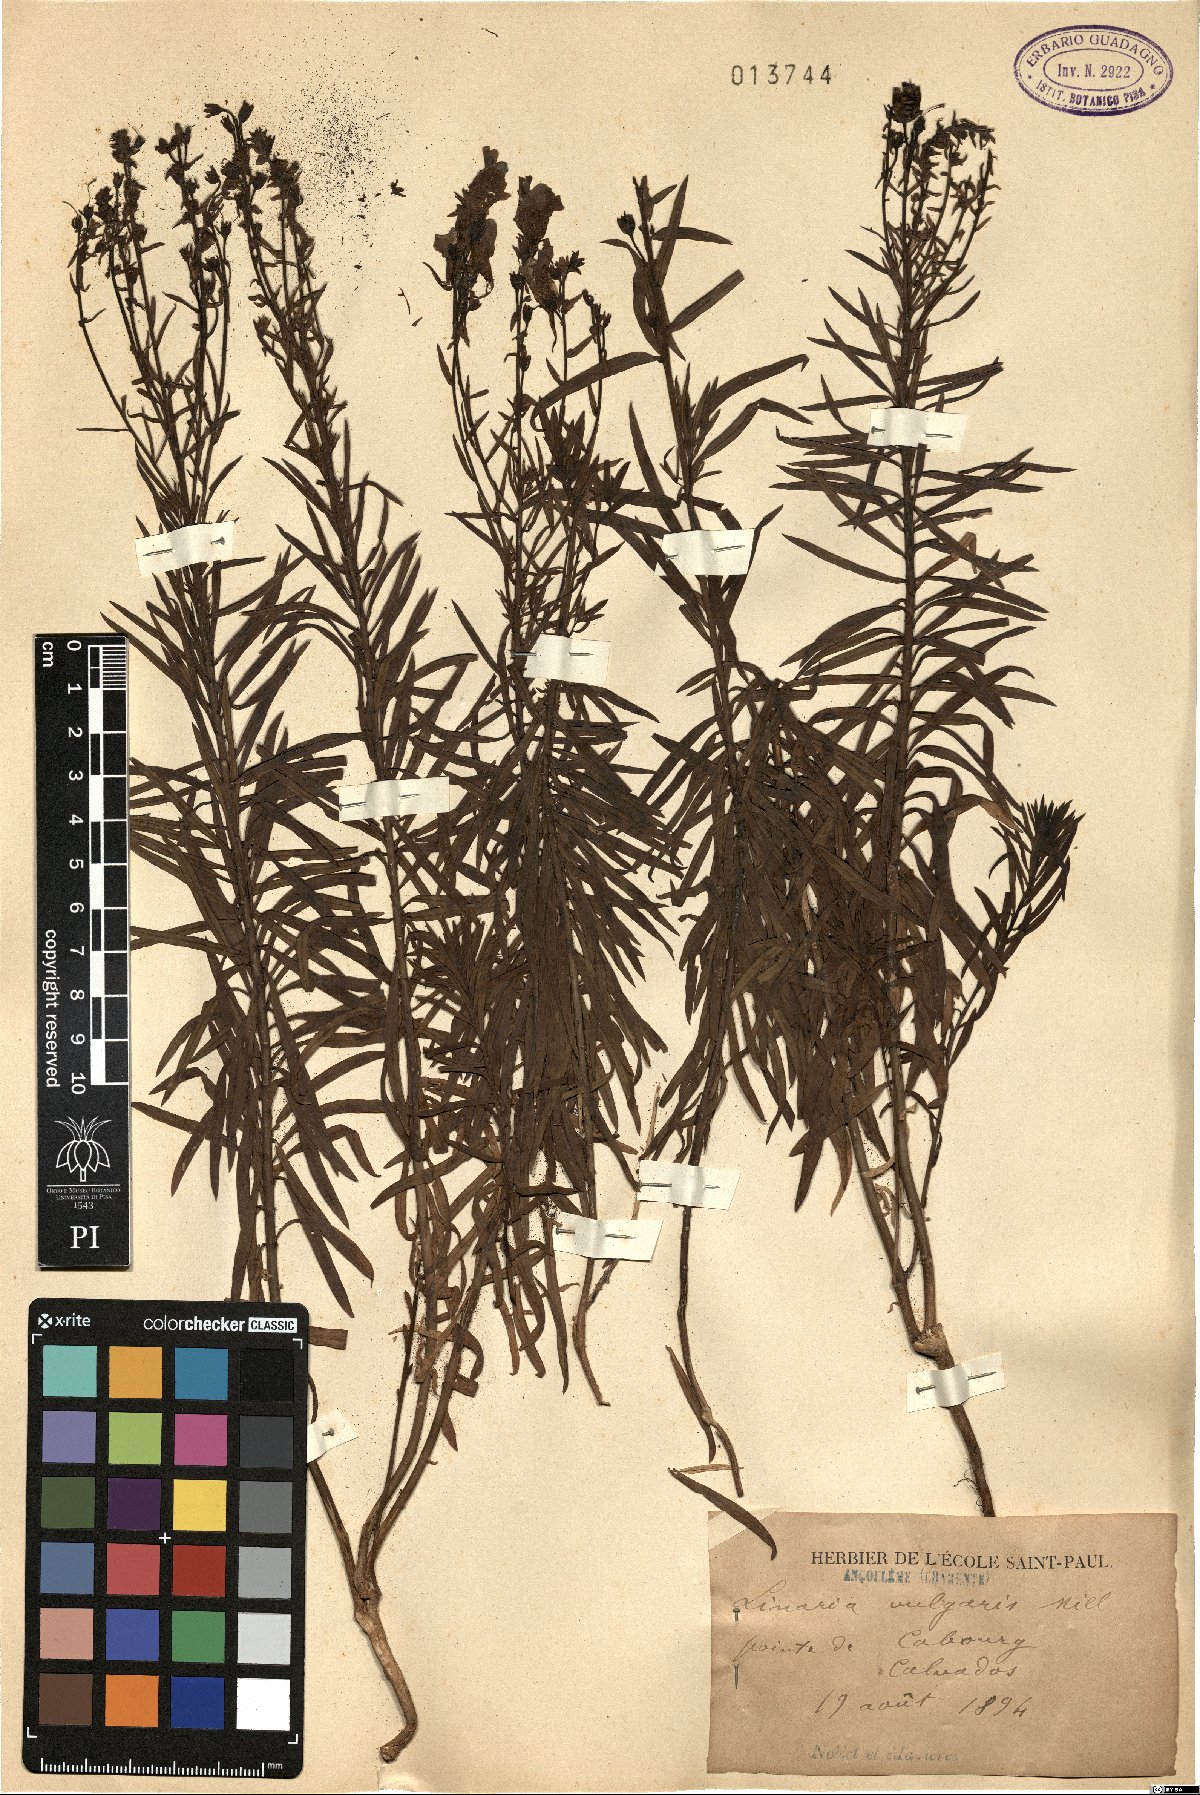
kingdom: Plantae
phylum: Tracheophyta
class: Magnoliopsida
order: Lamiales
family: Plantaginaceae
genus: Linaria
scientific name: Linaria vulgaris
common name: Butter and eggs
